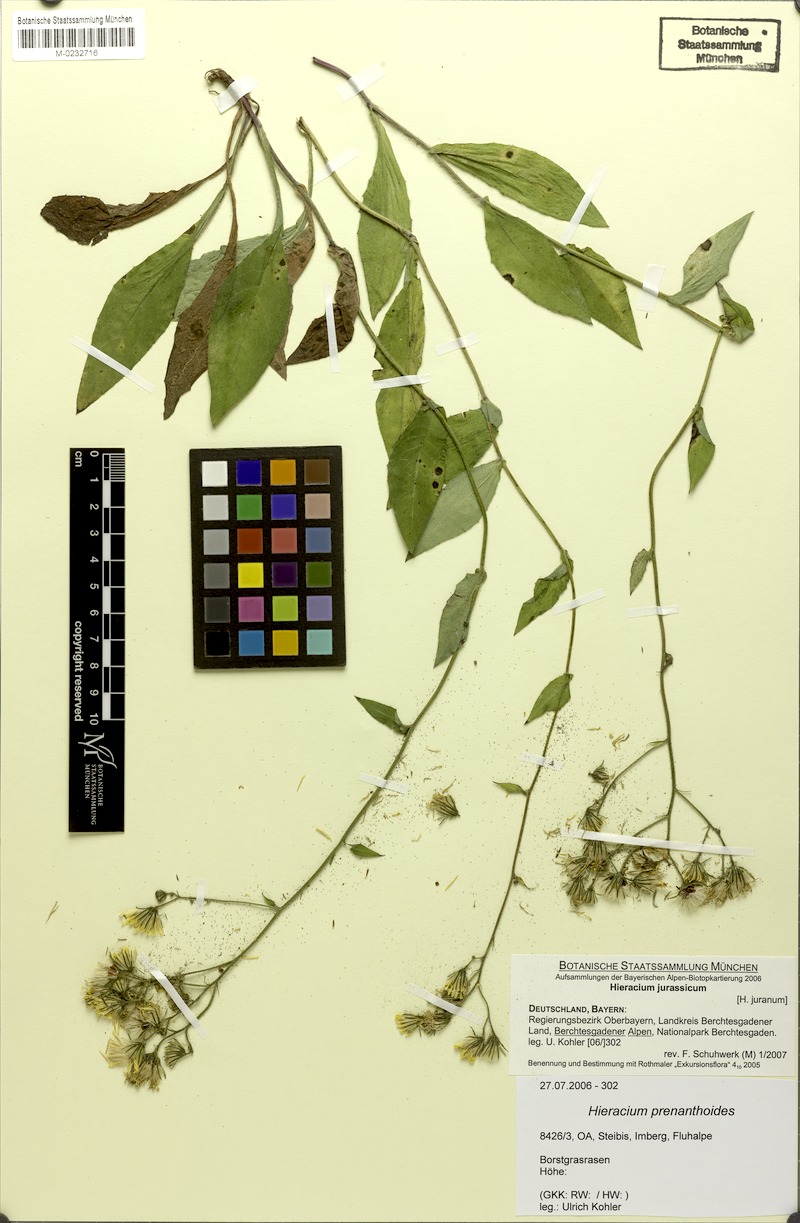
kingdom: Plantae
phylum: Tracheophyta
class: Magnoliopsida
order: Asterales
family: Asteraceae
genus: Hieracium
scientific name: Hieracium jurassicum
